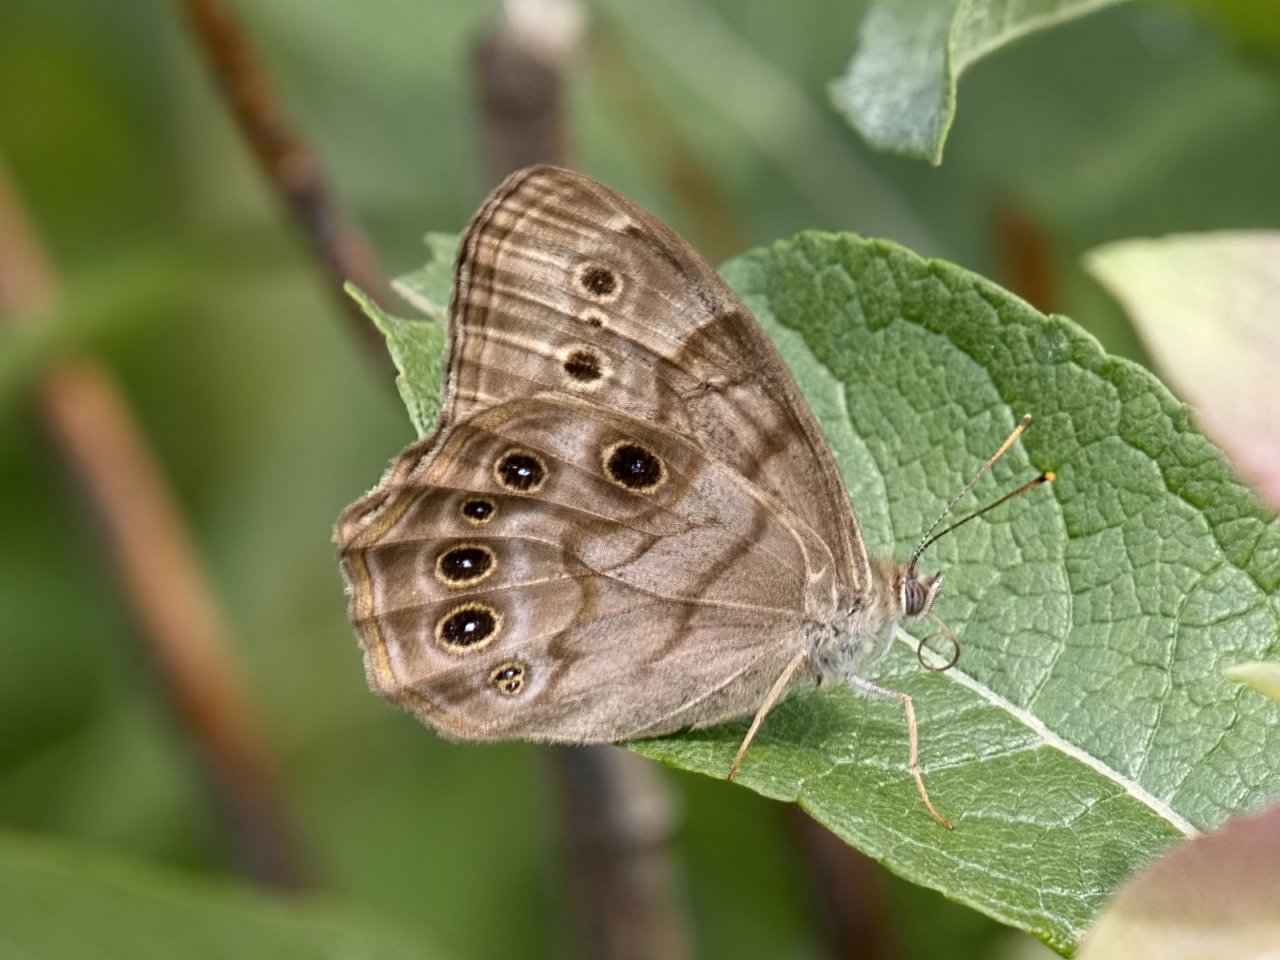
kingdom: Animalia
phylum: Arthropoda
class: Insecta
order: Lepidoptera
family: Nymphalidae
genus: Lethe
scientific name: Lethe anthedon
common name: Northern Pearly-Eye
